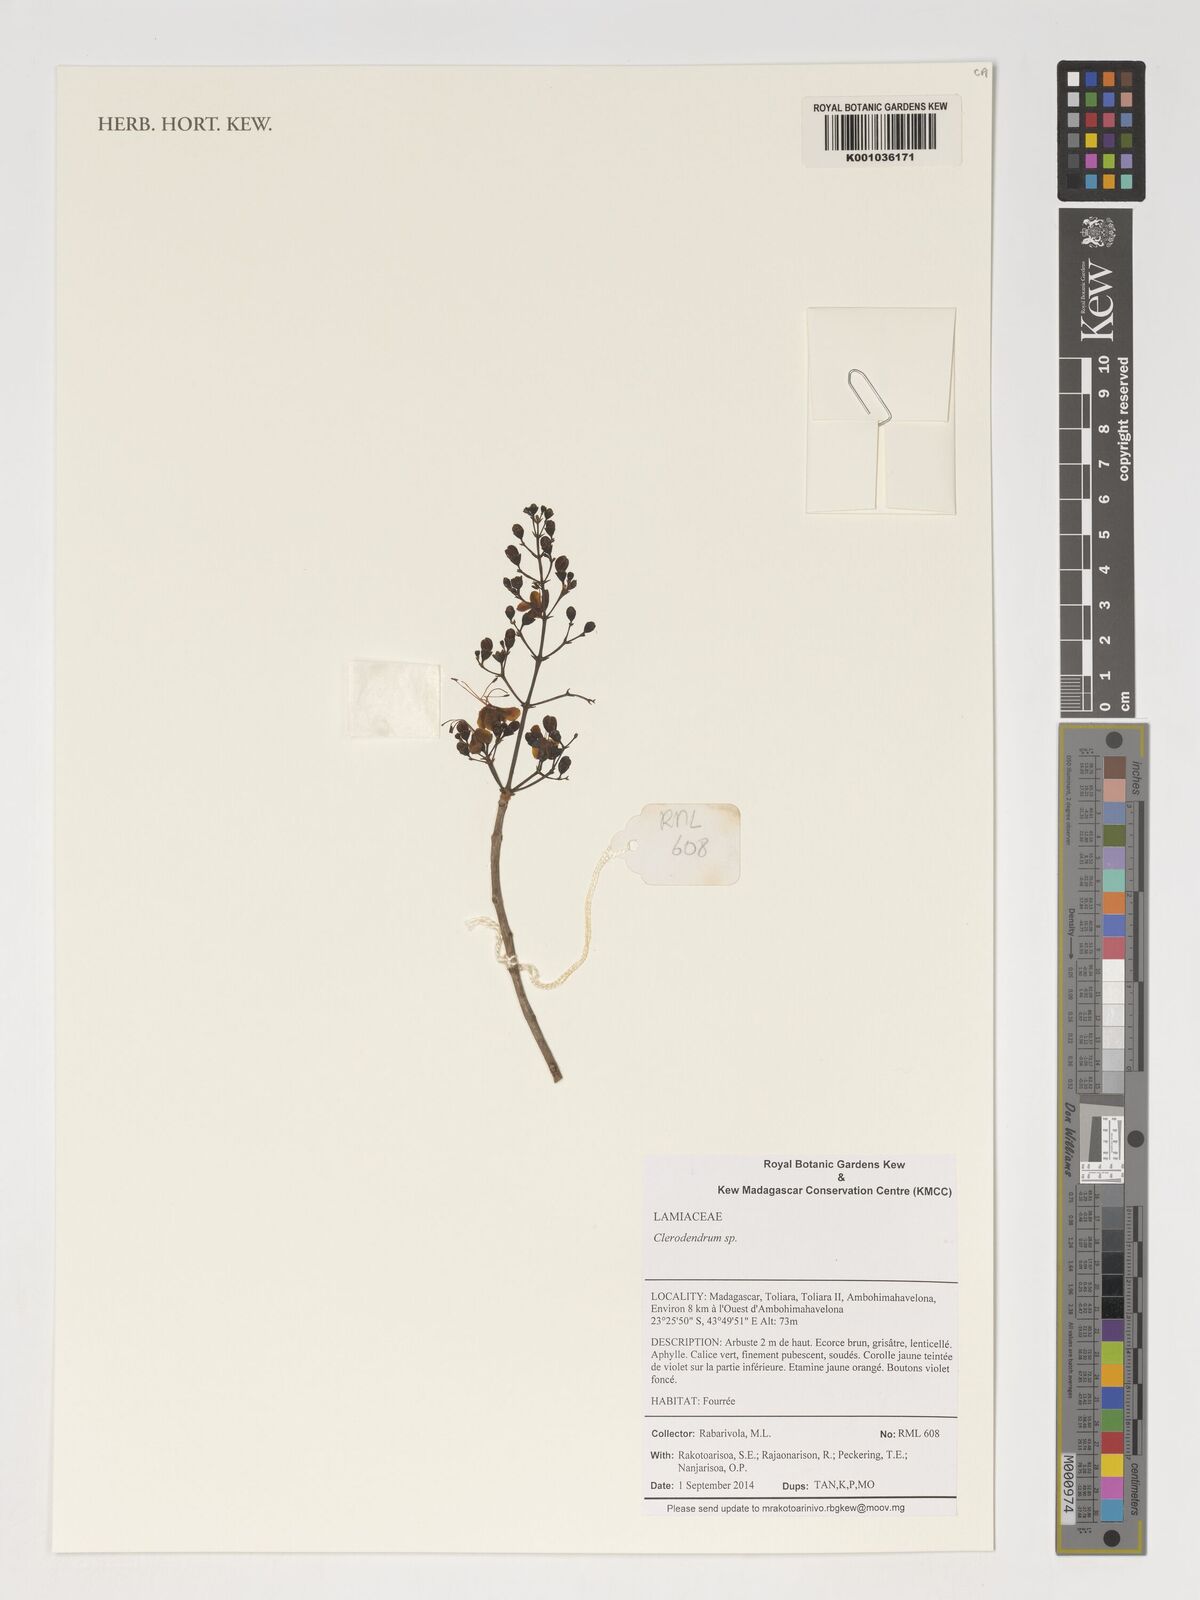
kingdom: Plantae
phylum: Tracheophyta
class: Magnoliopsida
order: Lamiales
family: Lamiaceae
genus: Clerodendrum
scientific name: Clerodendrum
